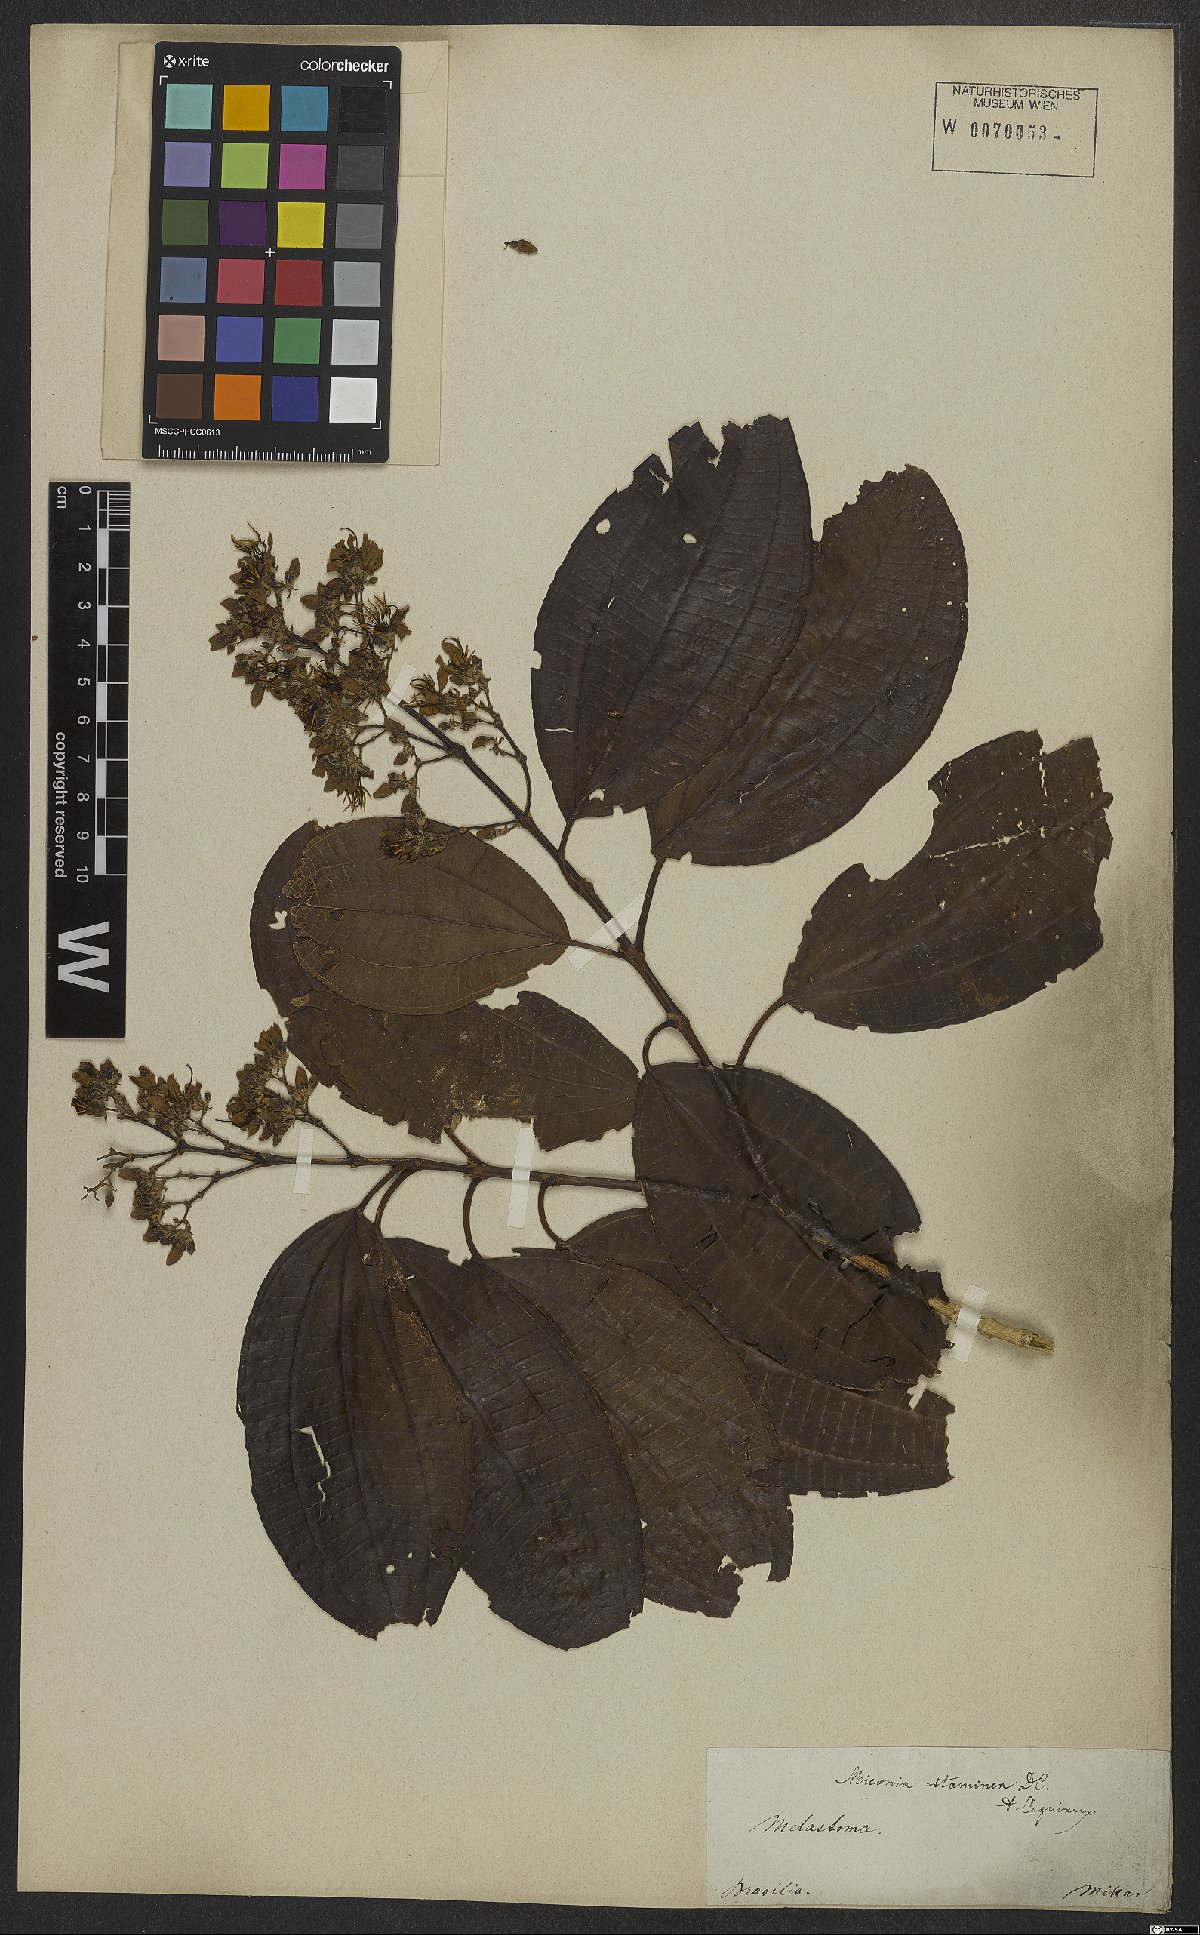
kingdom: Plantae
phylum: Tracheophyta
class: Magnoliopsida
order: Myrtales
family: Melastomataceae
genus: Miconia
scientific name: Miconia staminea
